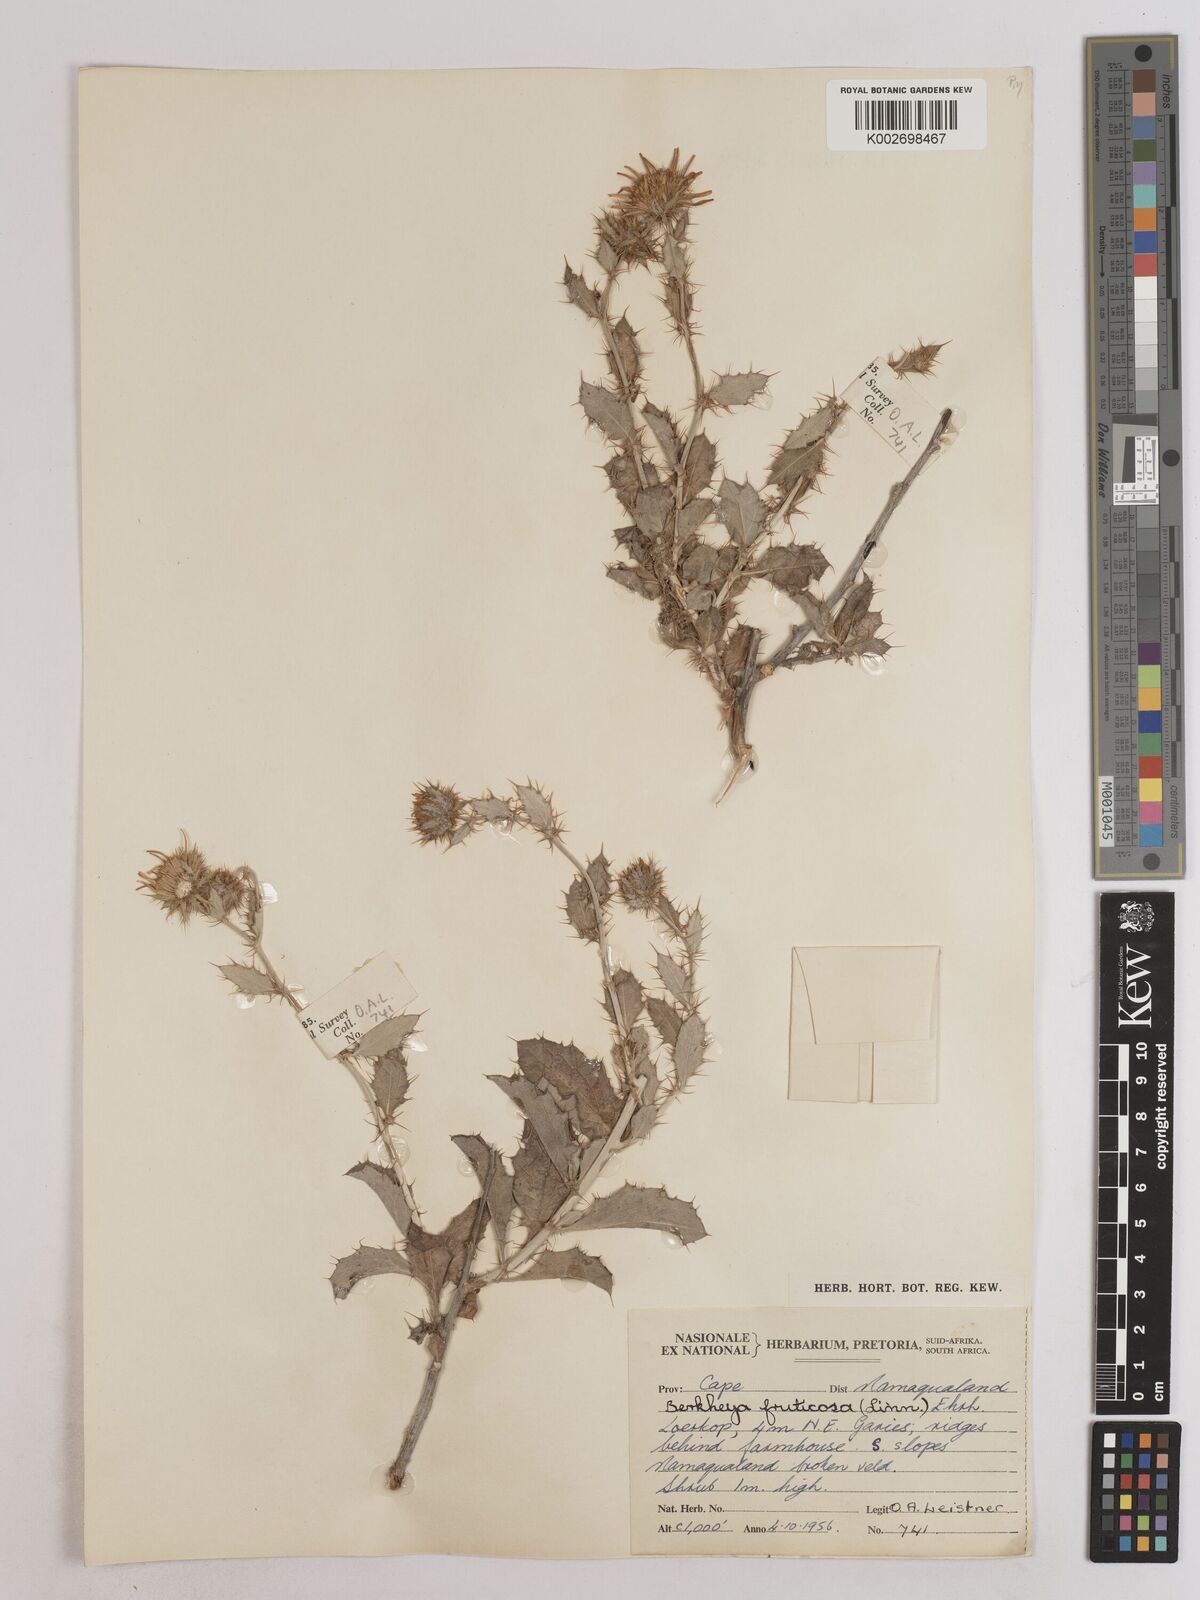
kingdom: Plantae
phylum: Tracheophyta
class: Magnoliopsida
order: Asterales
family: Asteraceae
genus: Berkheya
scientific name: Berkheya fruticosa
